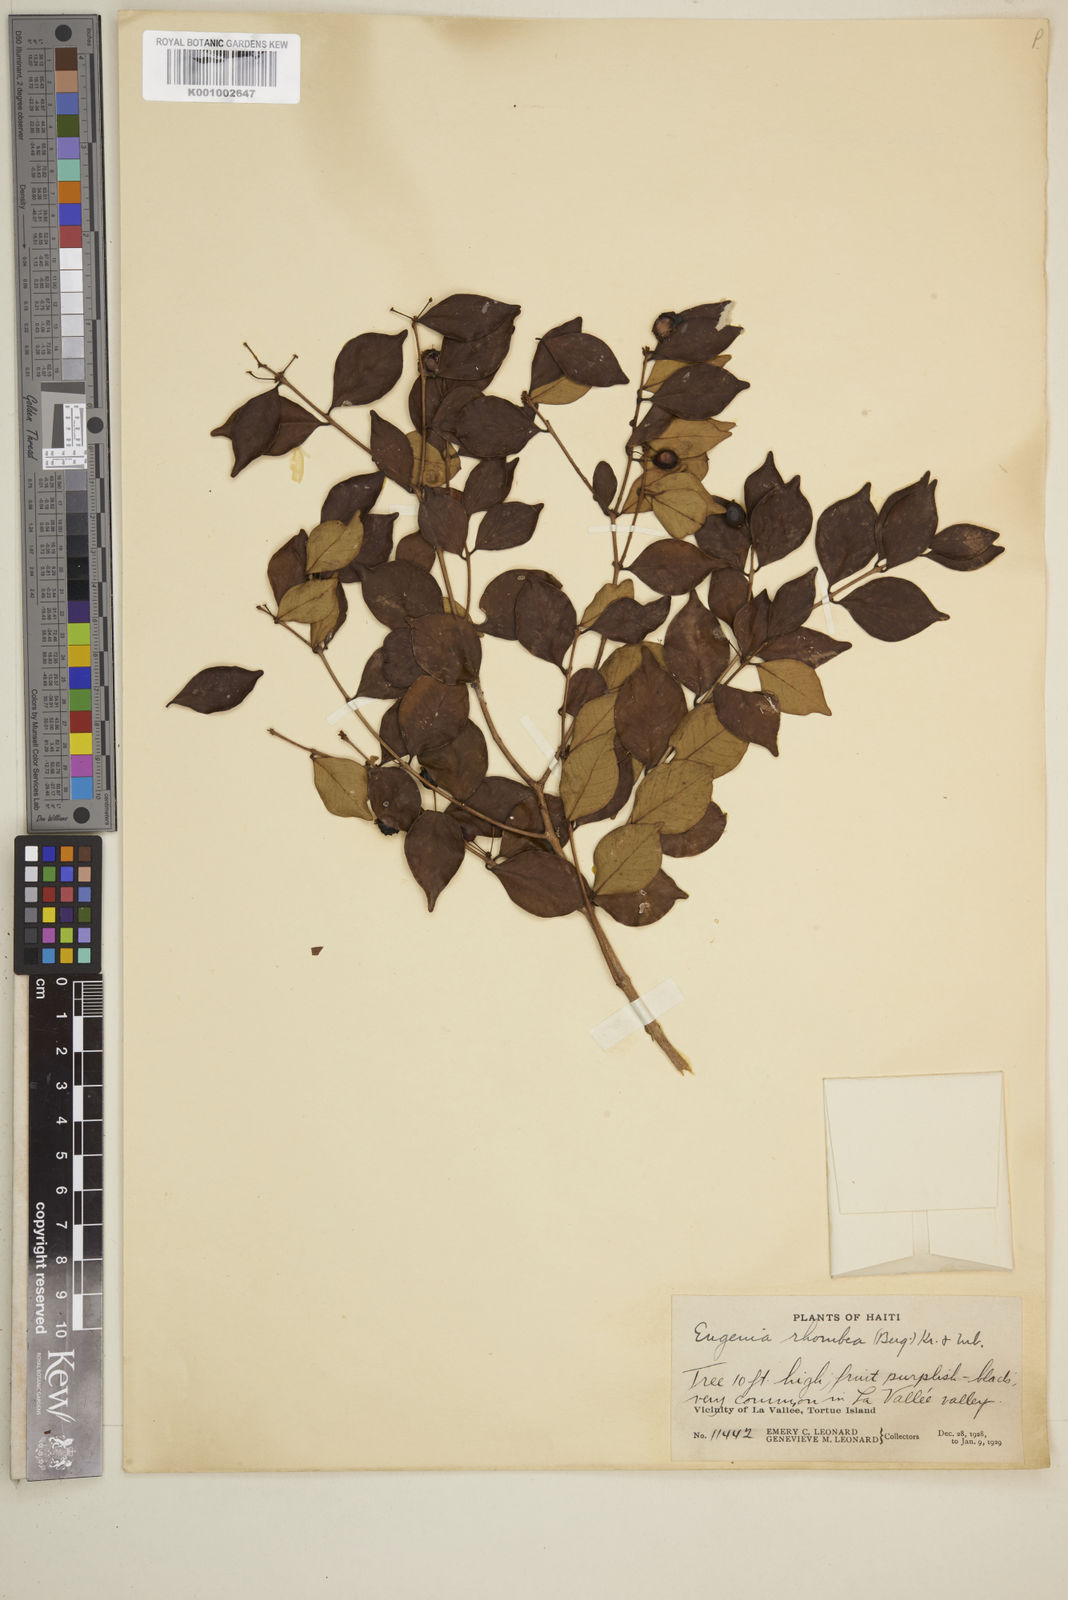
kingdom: Plantae
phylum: Tracheophyta
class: Magnoliopsida
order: Myrtales
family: Myrtaceae
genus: Eugenia
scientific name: Eugenia rhombea
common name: Pigeon berry
